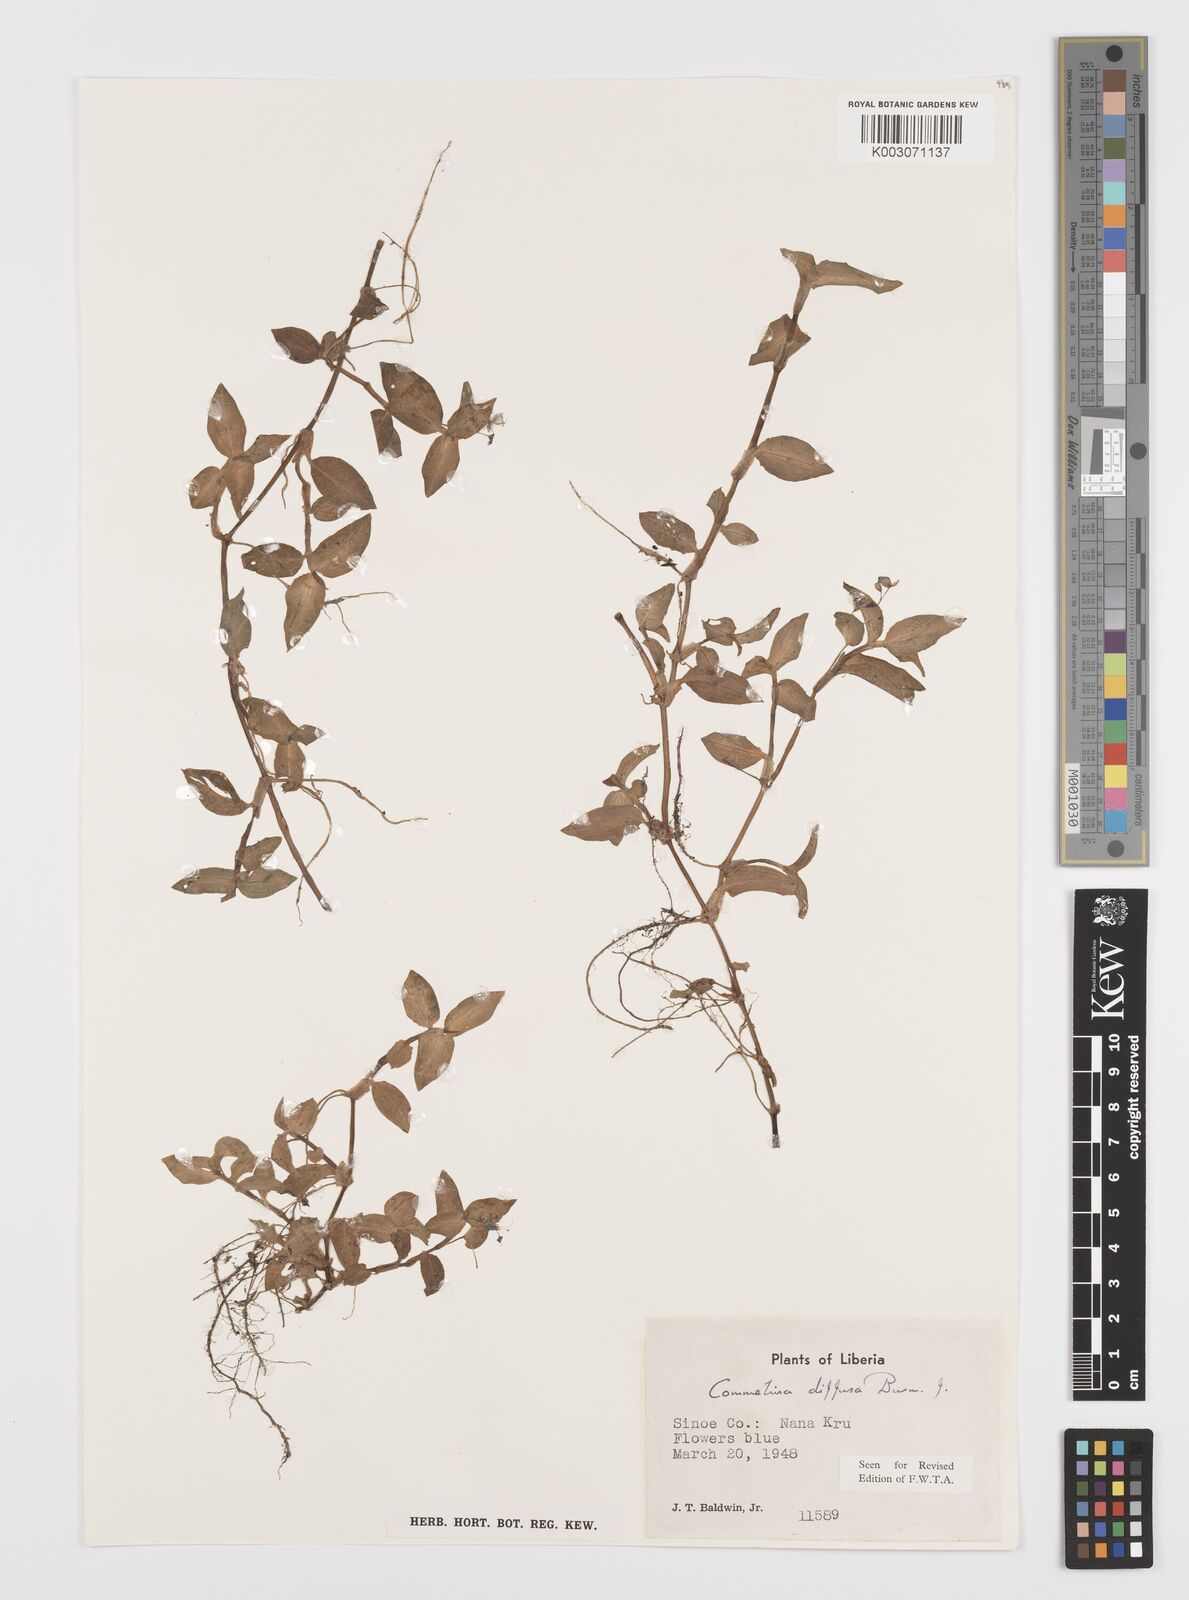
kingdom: Plantae
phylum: Tracheophyta
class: Liliopsida
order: Commelinales
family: Commelinaceae
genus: Commelina
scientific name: Commelina diffusa
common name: Climbing dayflower
